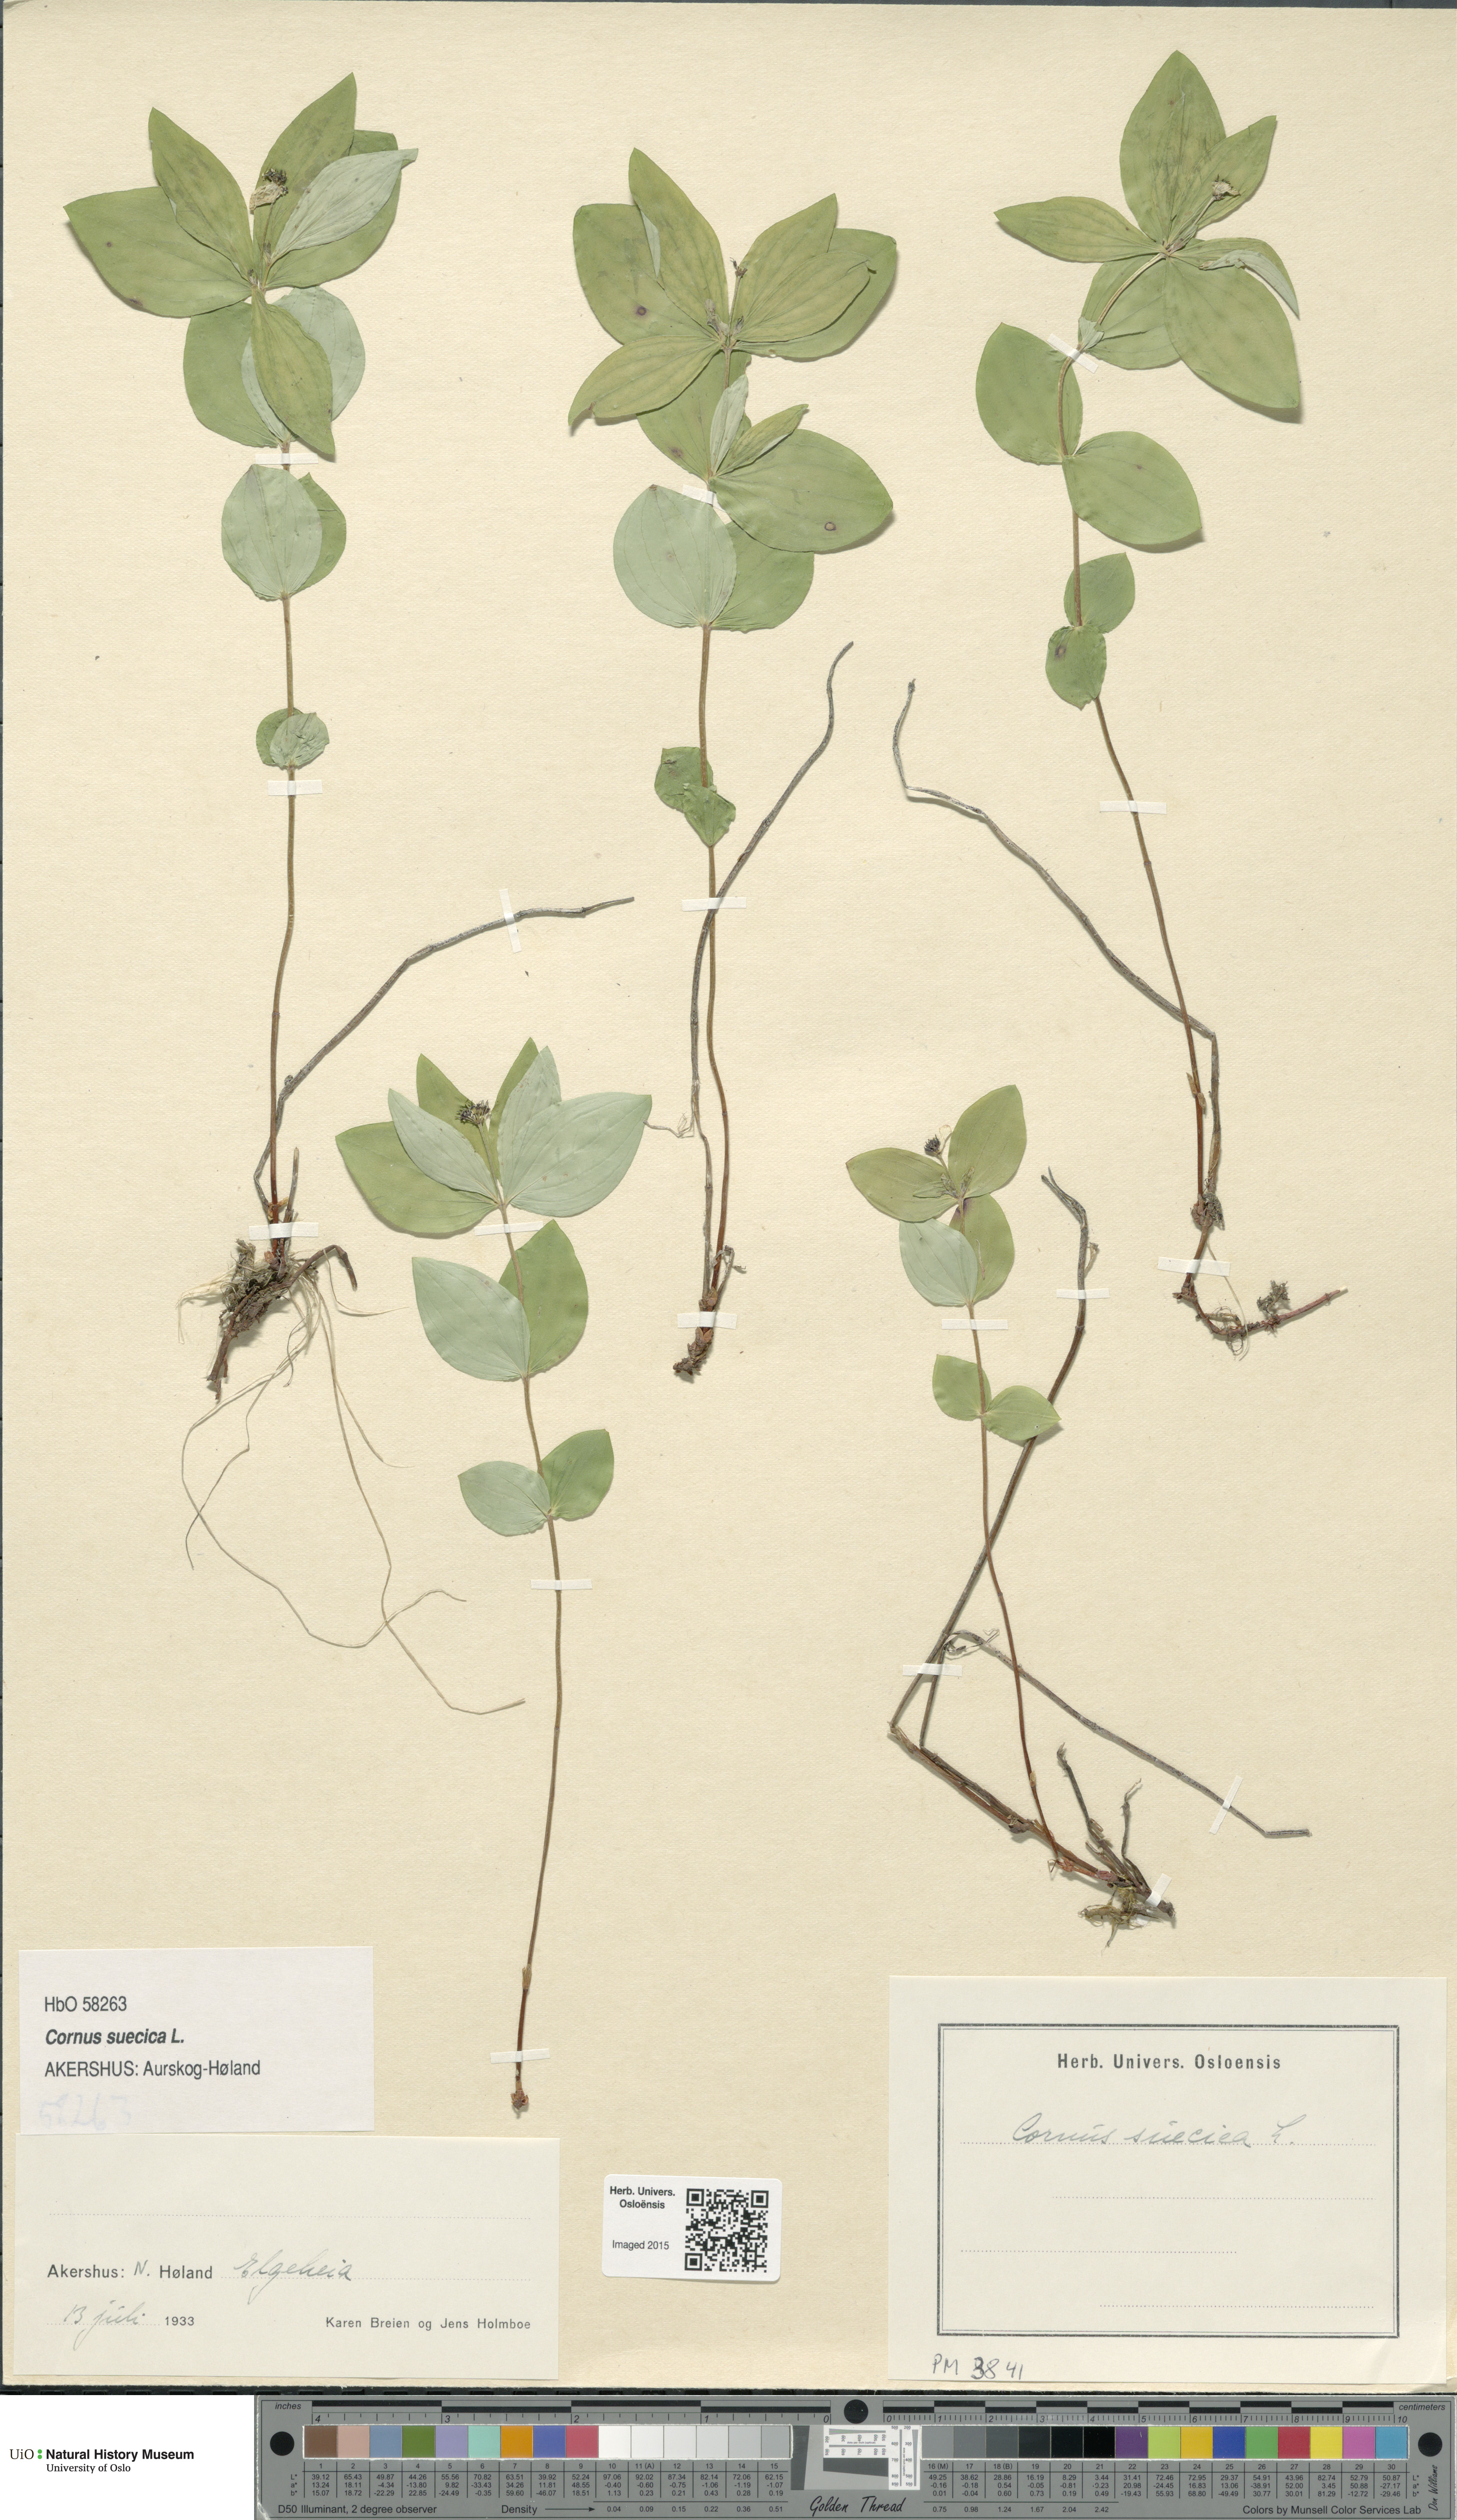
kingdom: Plantae
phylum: Tracheophyta
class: Magnoliopsida
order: Cornales
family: Cornaceae
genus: Cornus
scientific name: Cornus suecica
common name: Dwarf cornel
